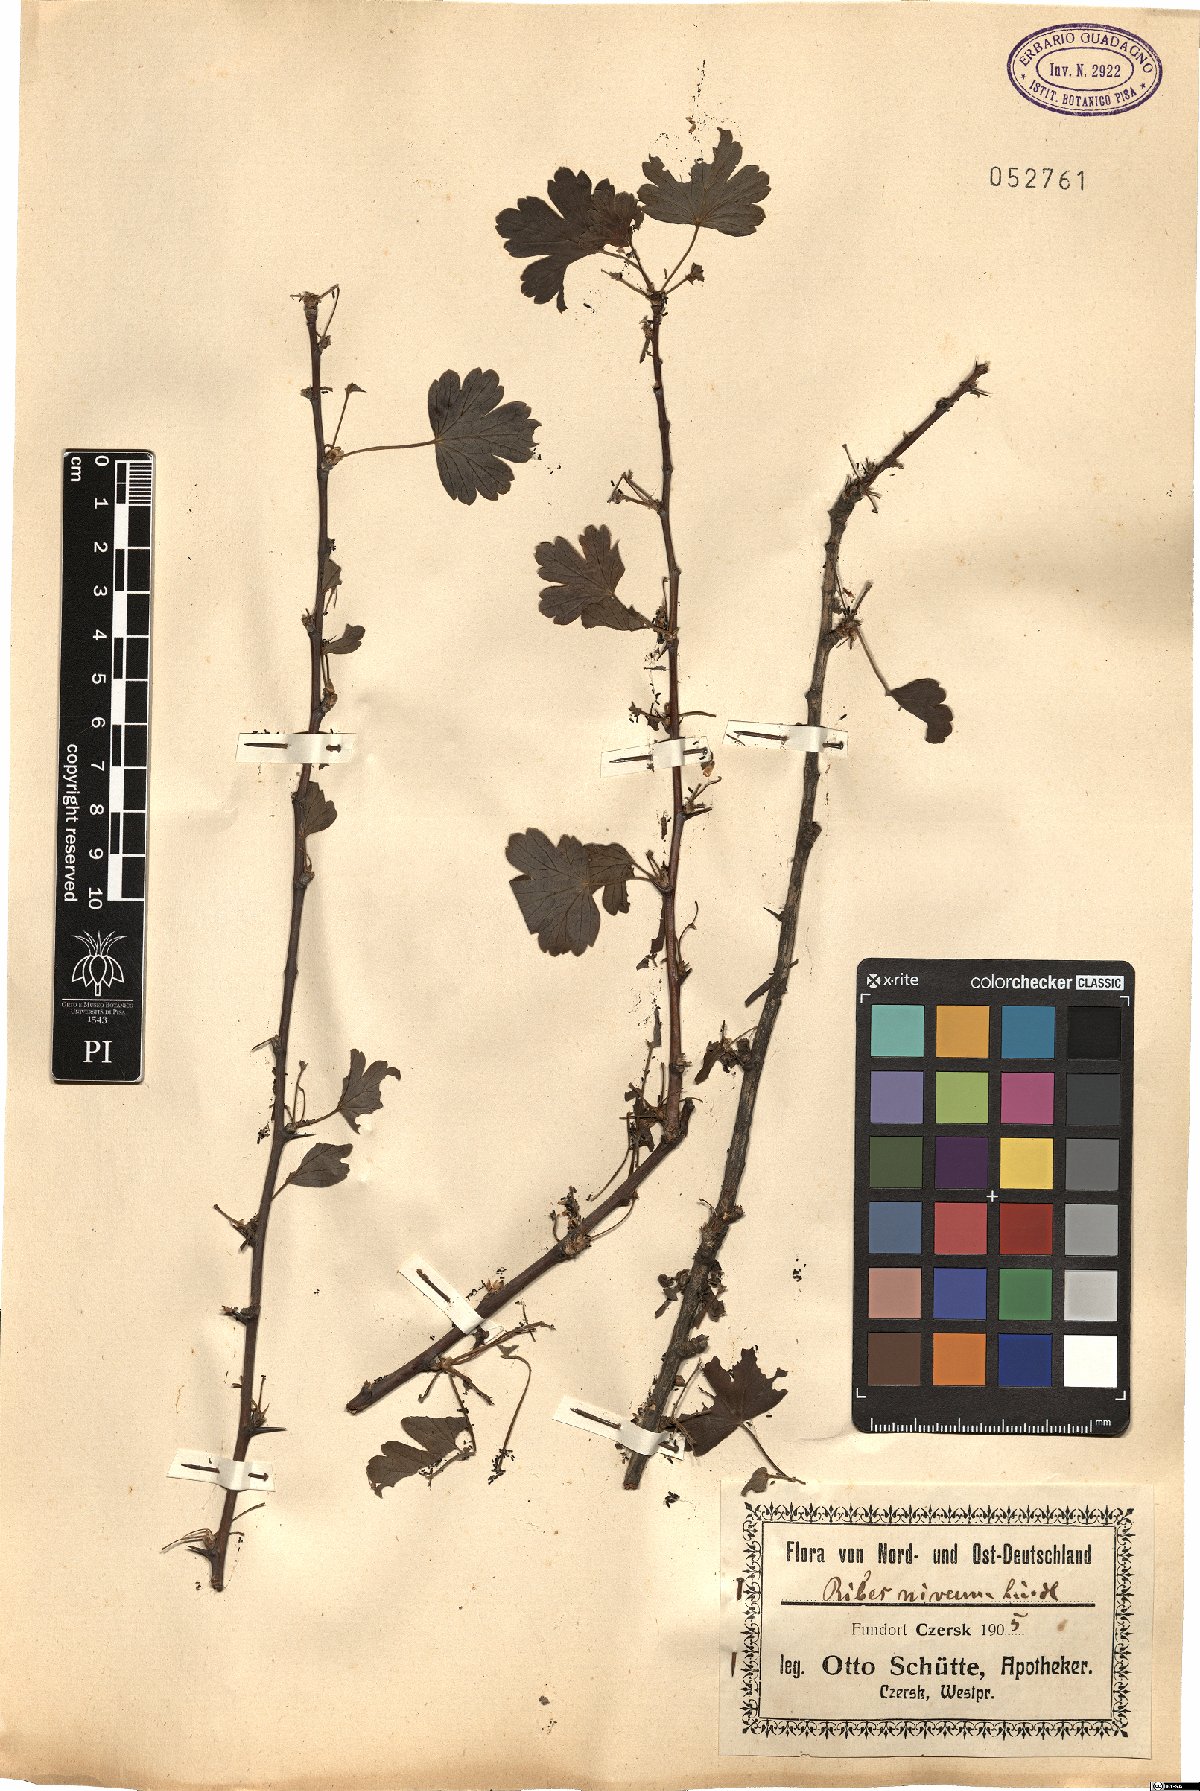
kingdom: Plantae
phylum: Tracheophyta
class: Magnoliopsida
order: Saxifragales
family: Grossulariaceae
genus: Ribes
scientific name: Ribes niveum
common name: Snake river gooseberry
